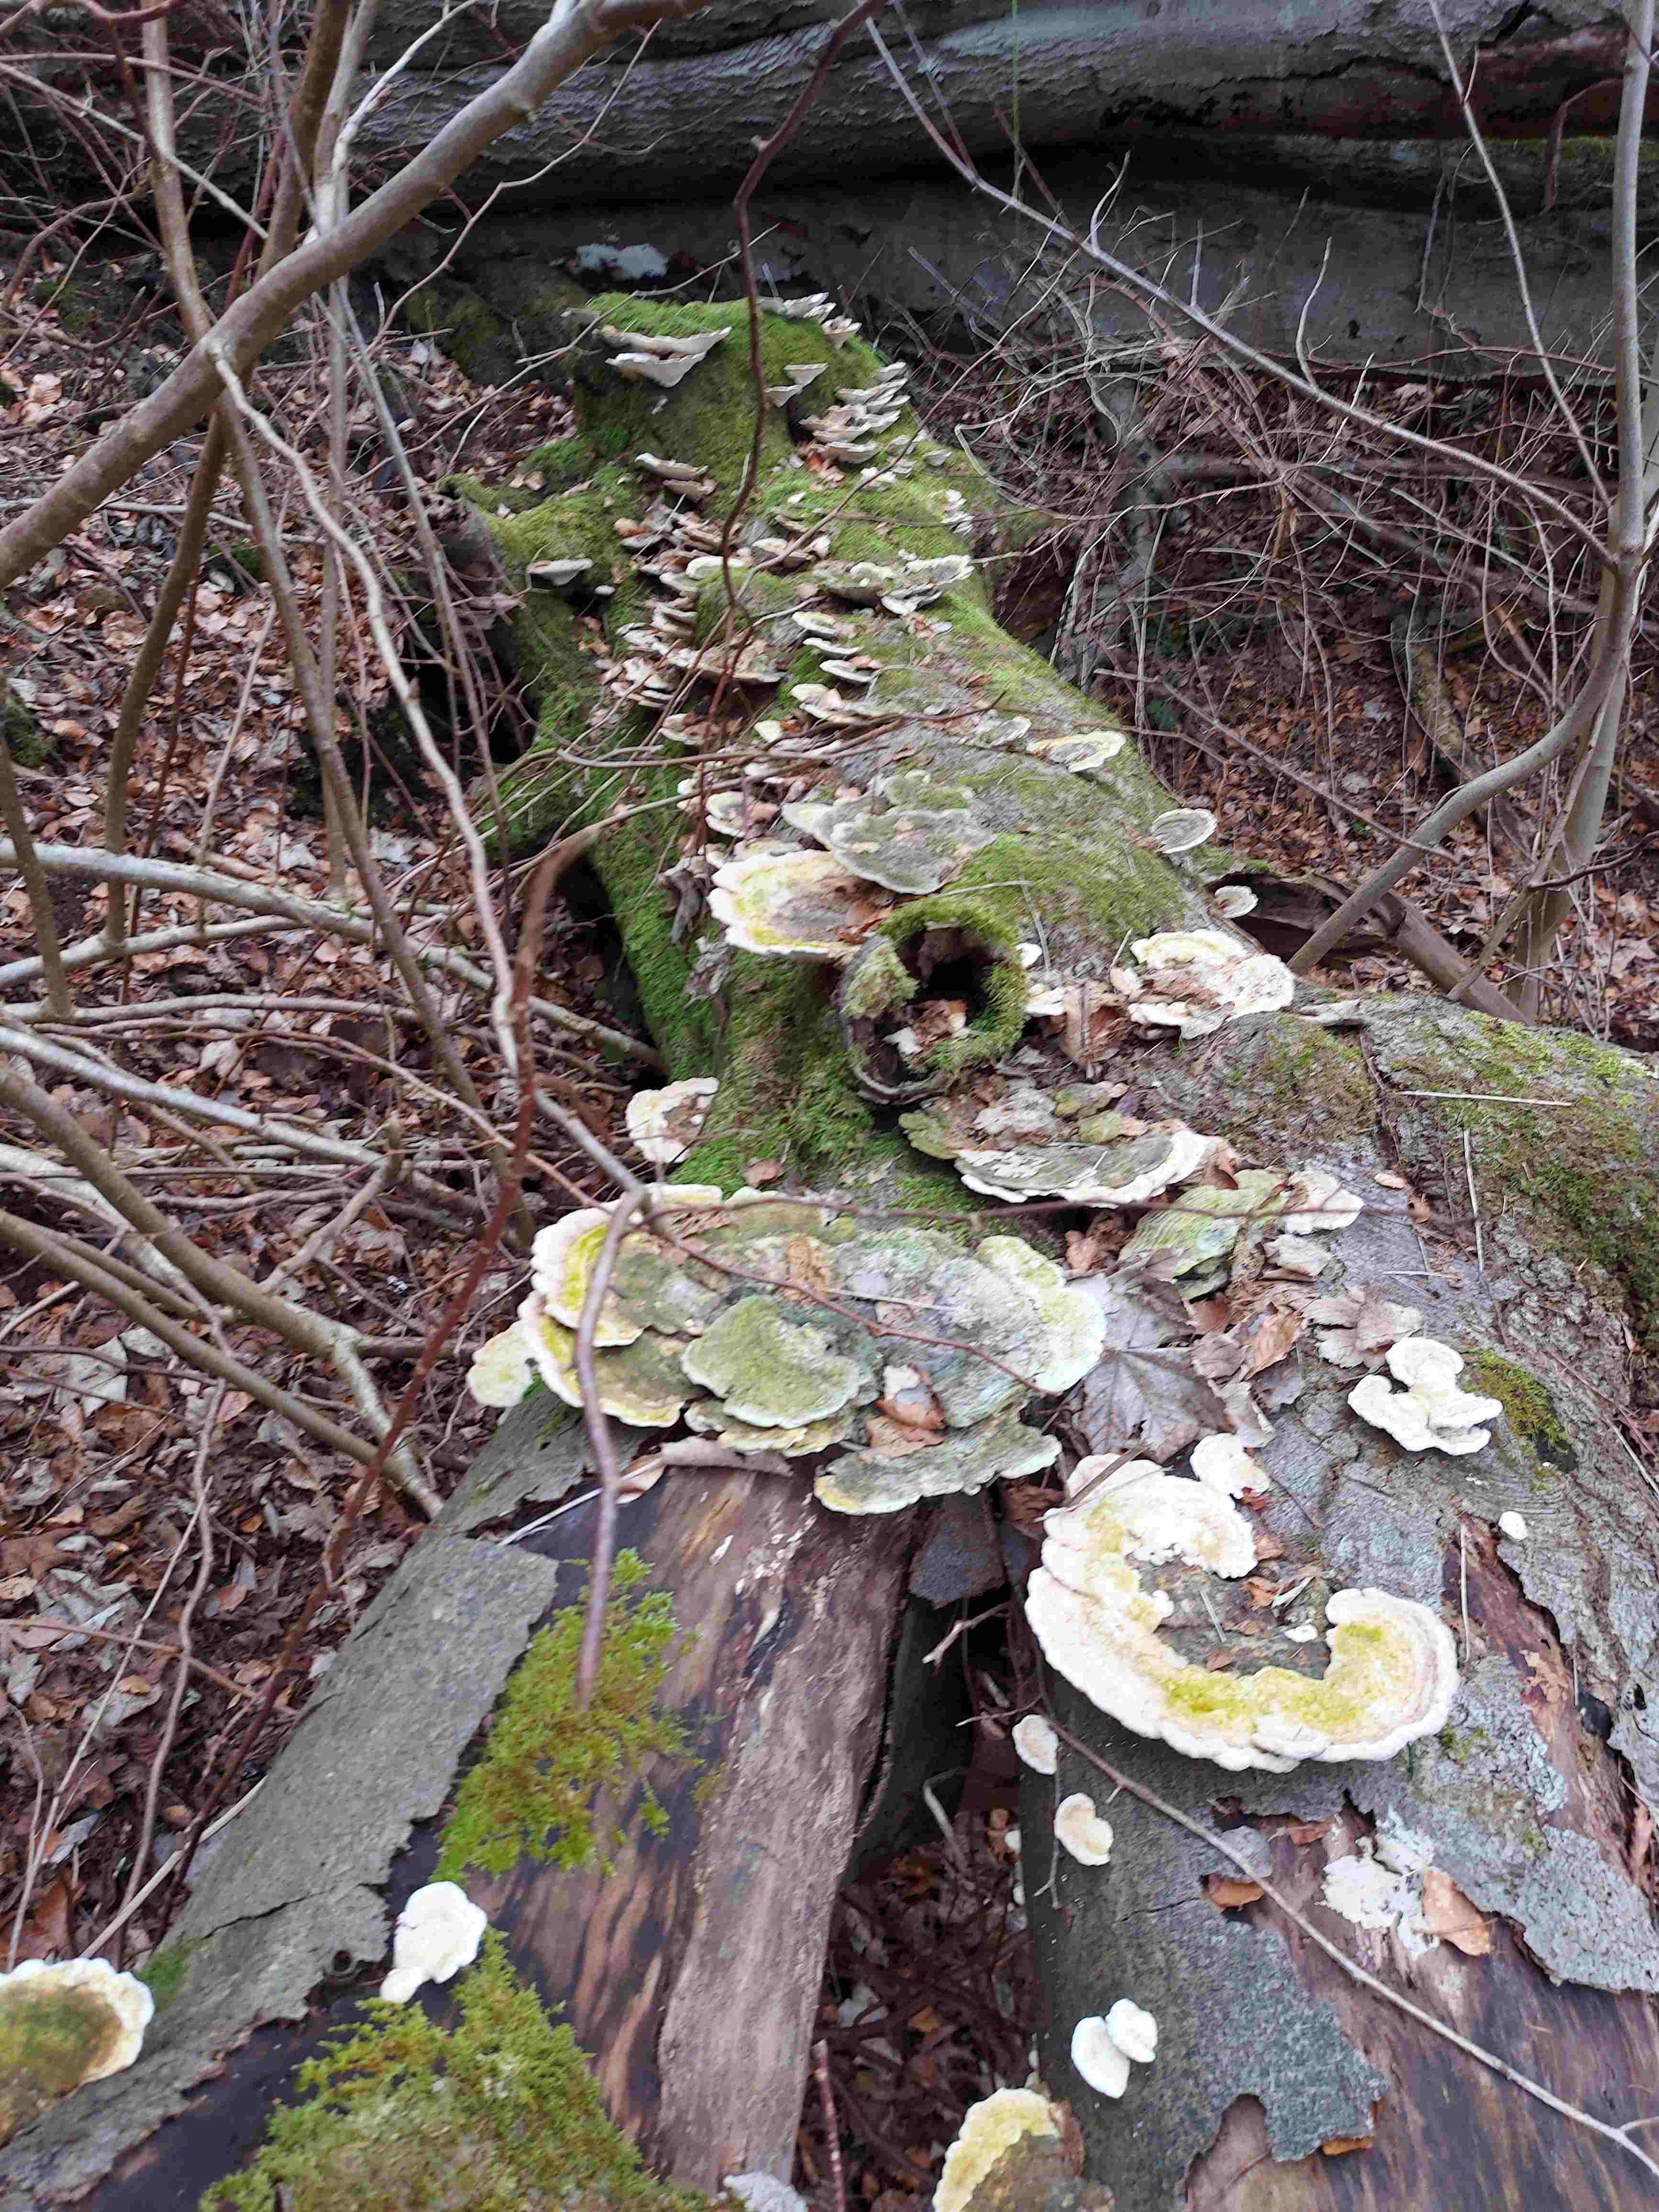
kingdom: Fungi
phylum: Basidiomycota
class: Agaricomycetes
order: Polyporales
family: Polyporaceae
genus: Trametes
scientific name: Trametes gibbosa
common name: puklet læderporesvamp
